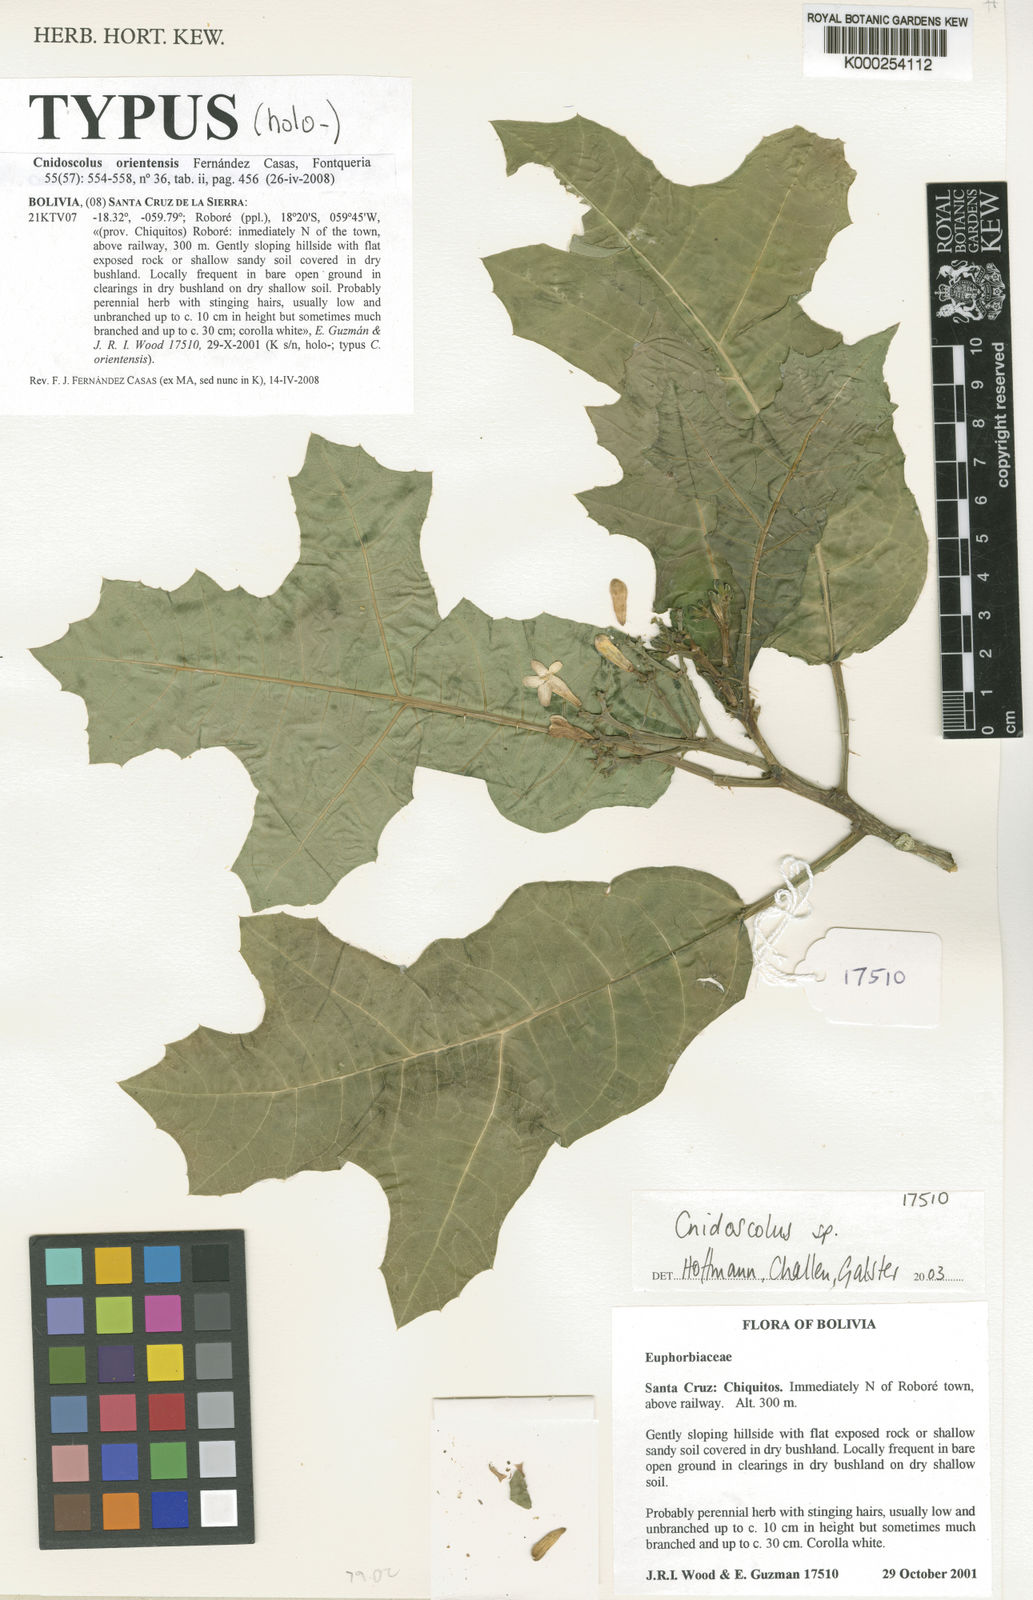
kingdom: Plantae
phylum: Tracheophyta
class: Magnoliopsida
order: Malpighiales
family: Euphorbiaceae
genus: Cnidoscolus
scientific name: Cnidoscolus orientensis
